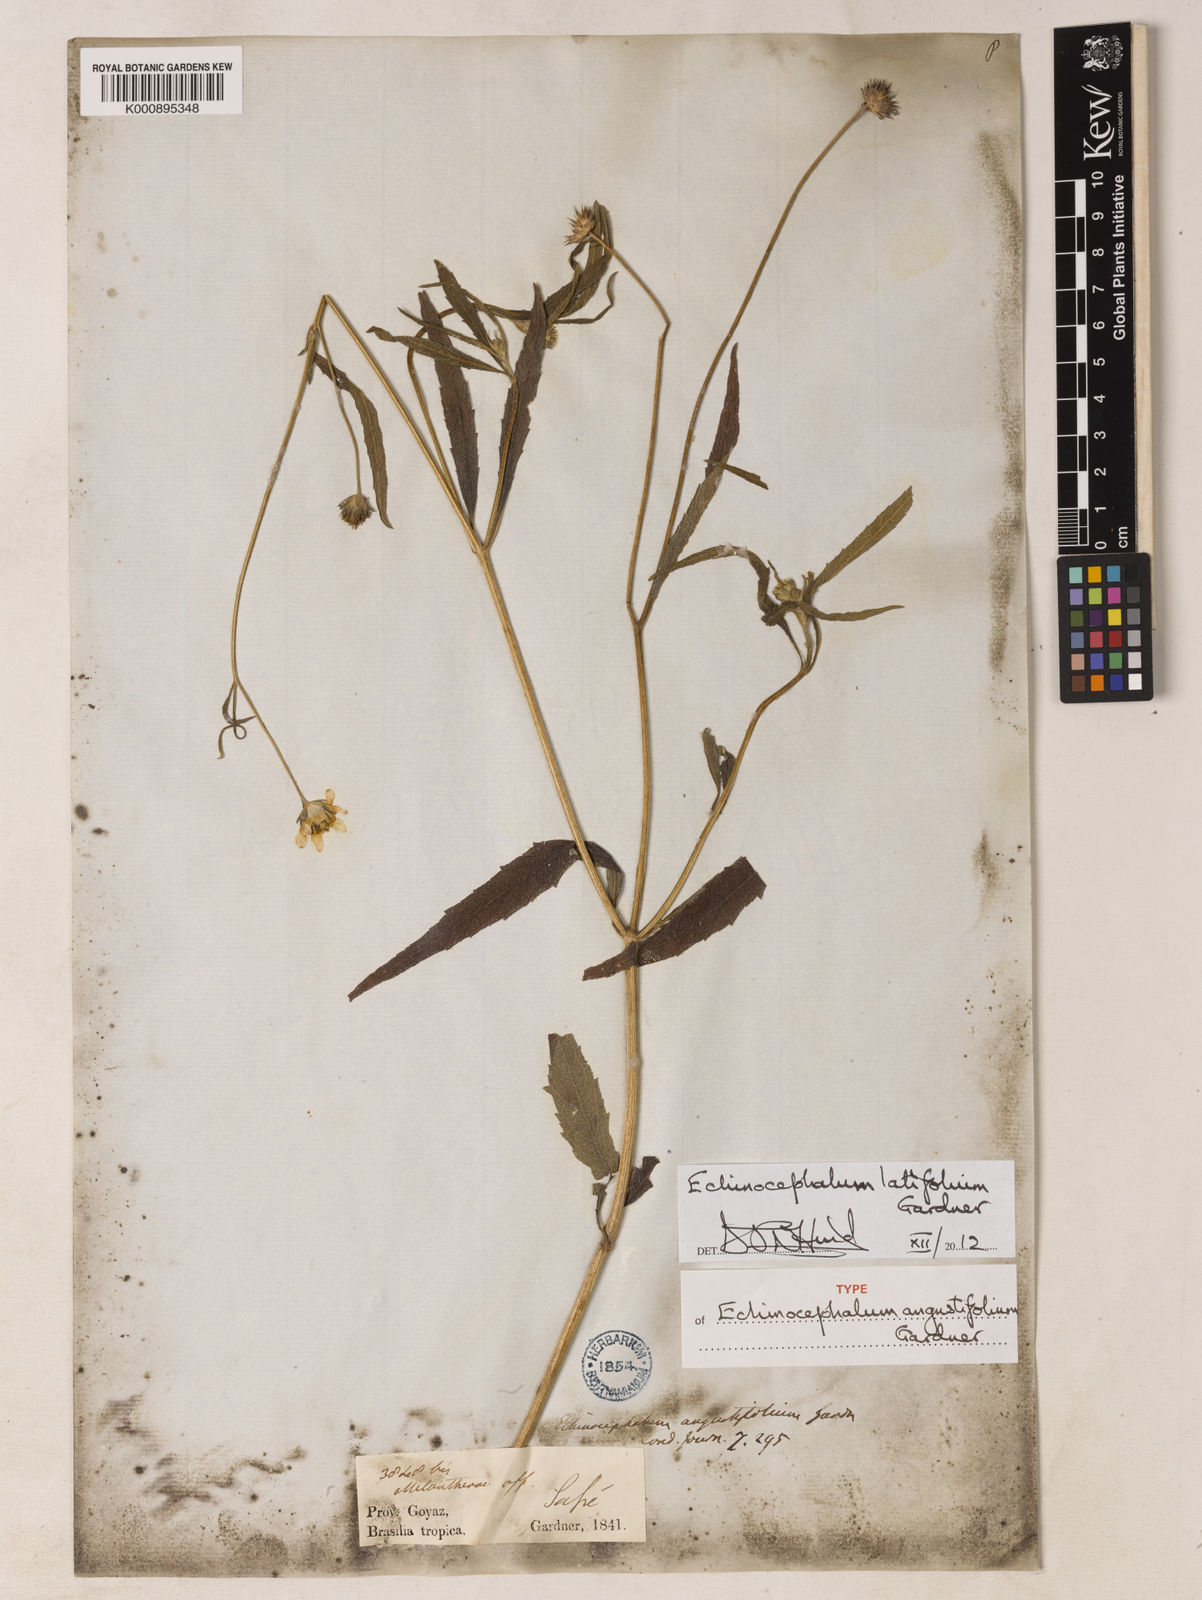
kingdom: Plantae
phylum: Tracheophyta
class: Magnoliopsida
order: Asterales
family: Asteraceae
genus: Echinocephalum
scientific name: Echinocephalum latifolium
